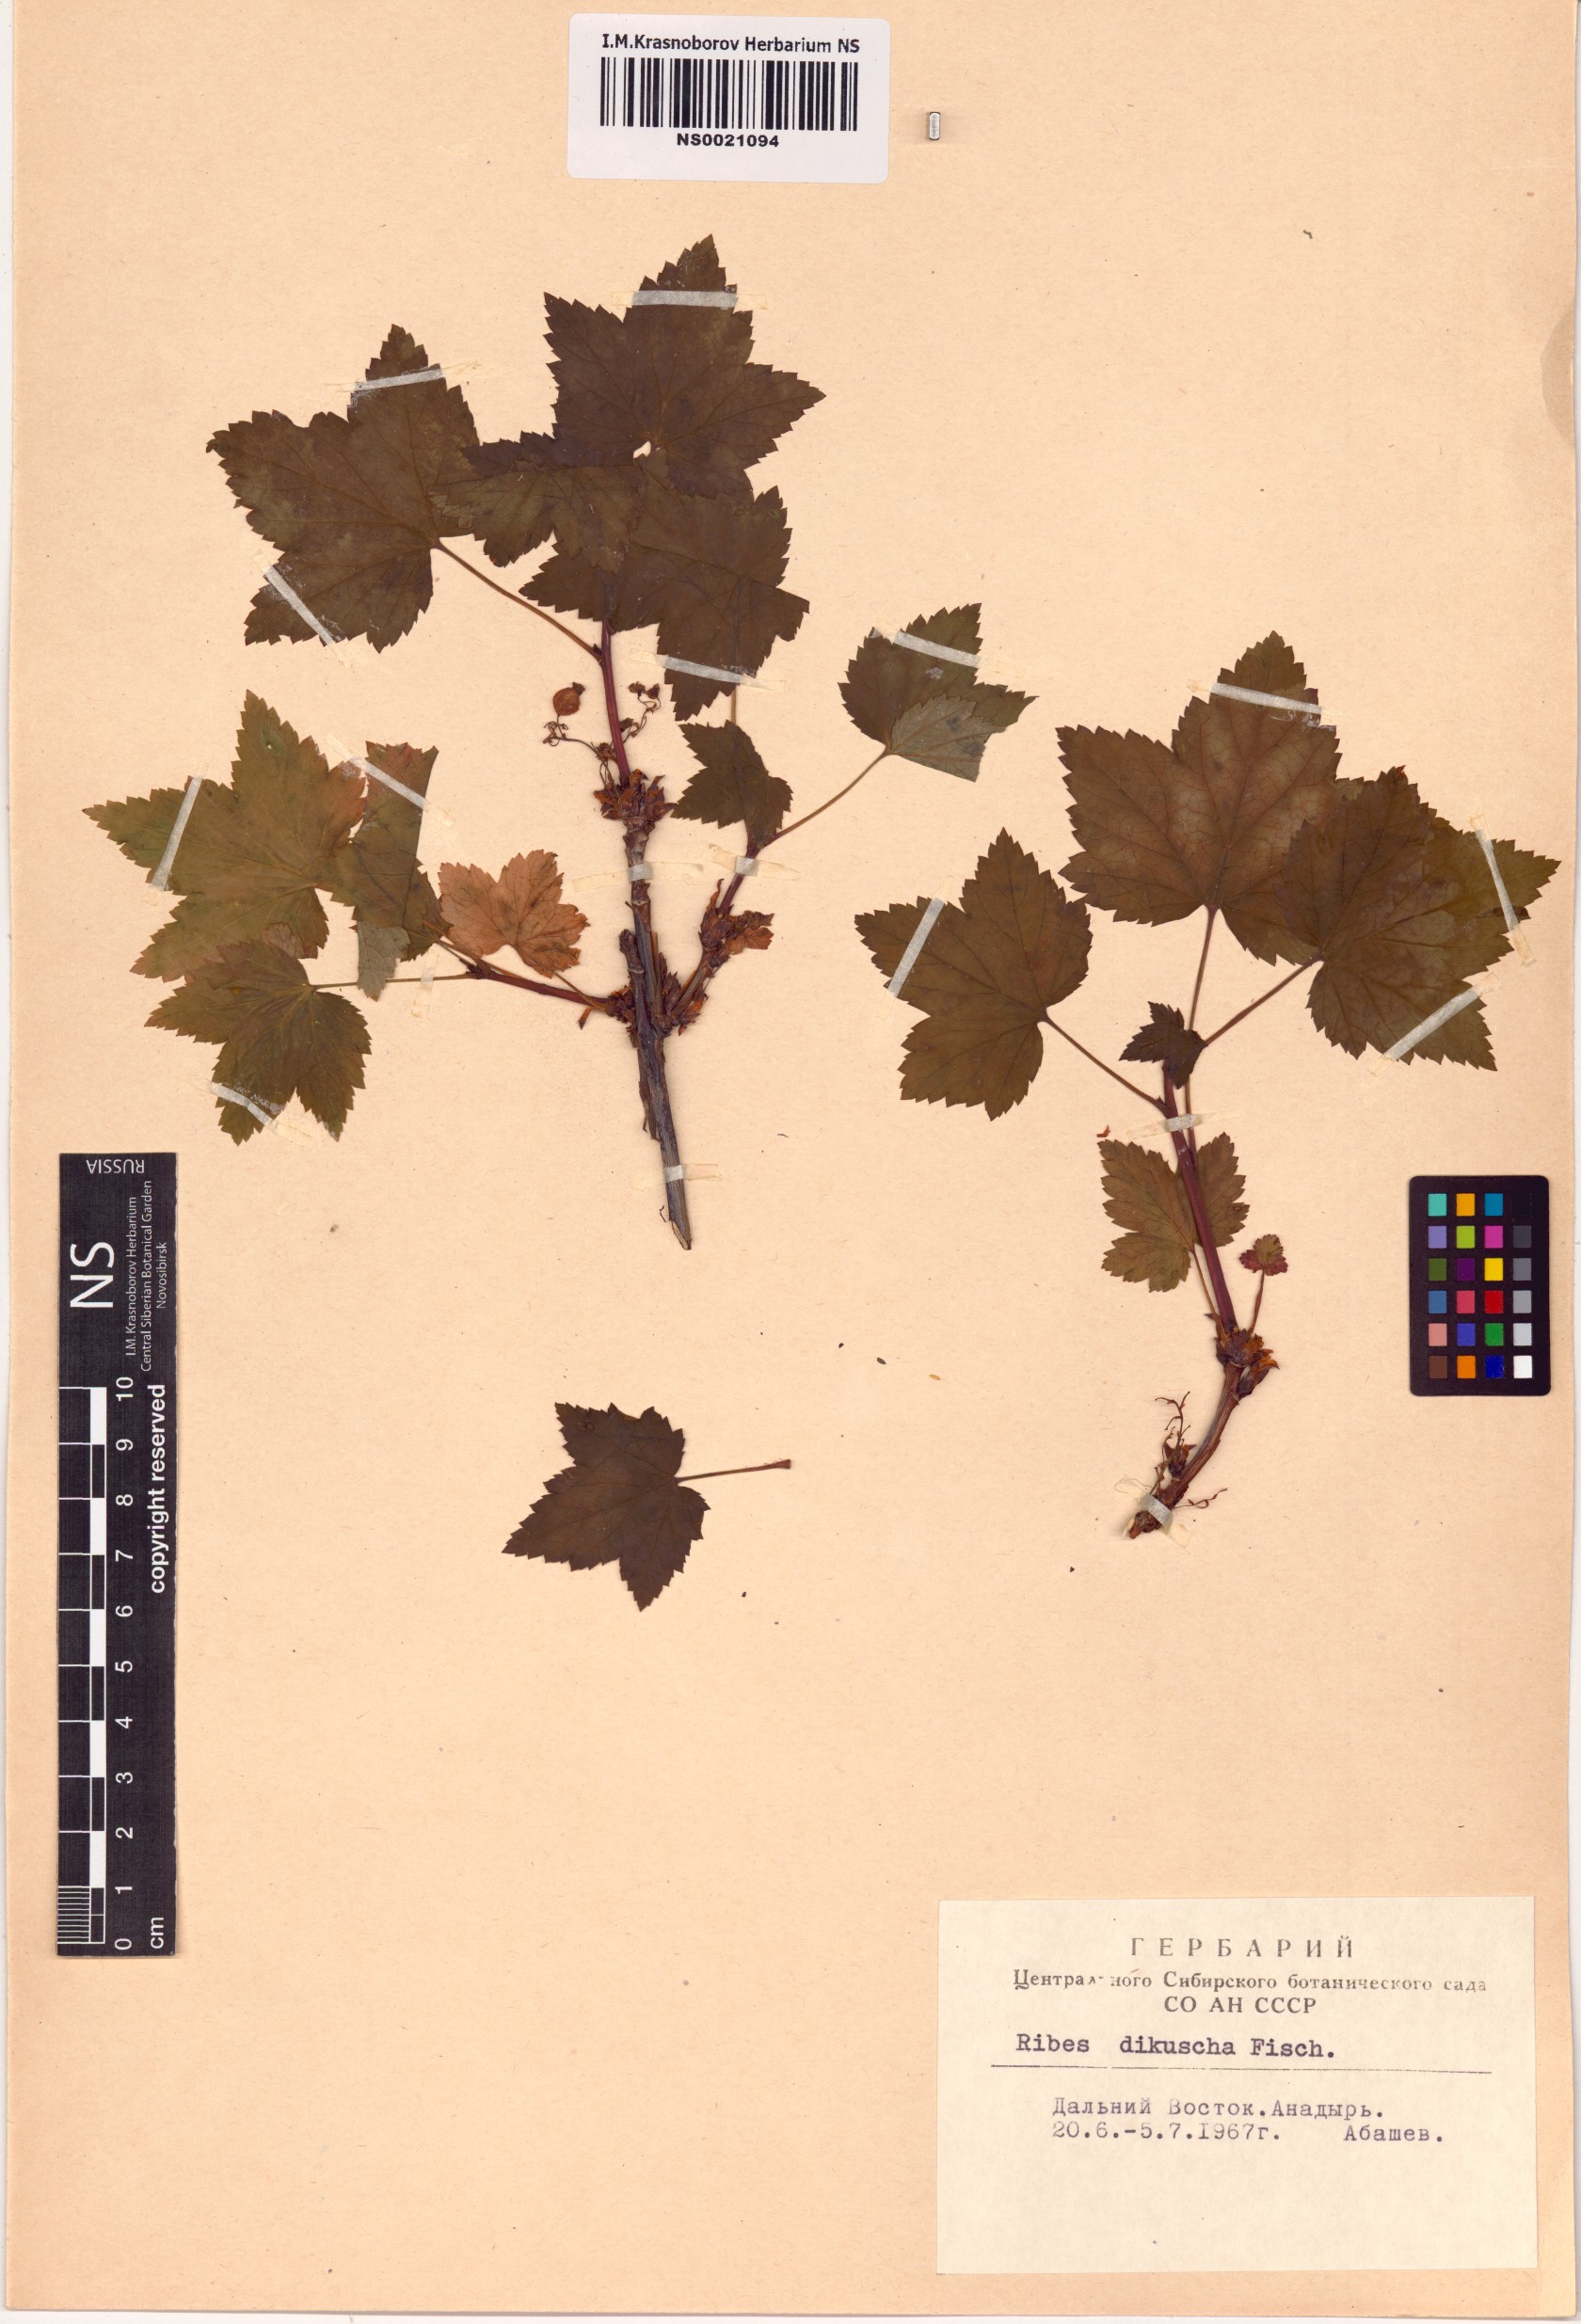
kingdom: Plantae
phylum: Tracheophyta
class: Magnoliopsida
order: Saxifragales
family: Grossulariaceae
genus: Ribes
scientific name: Ribes dikuscha
